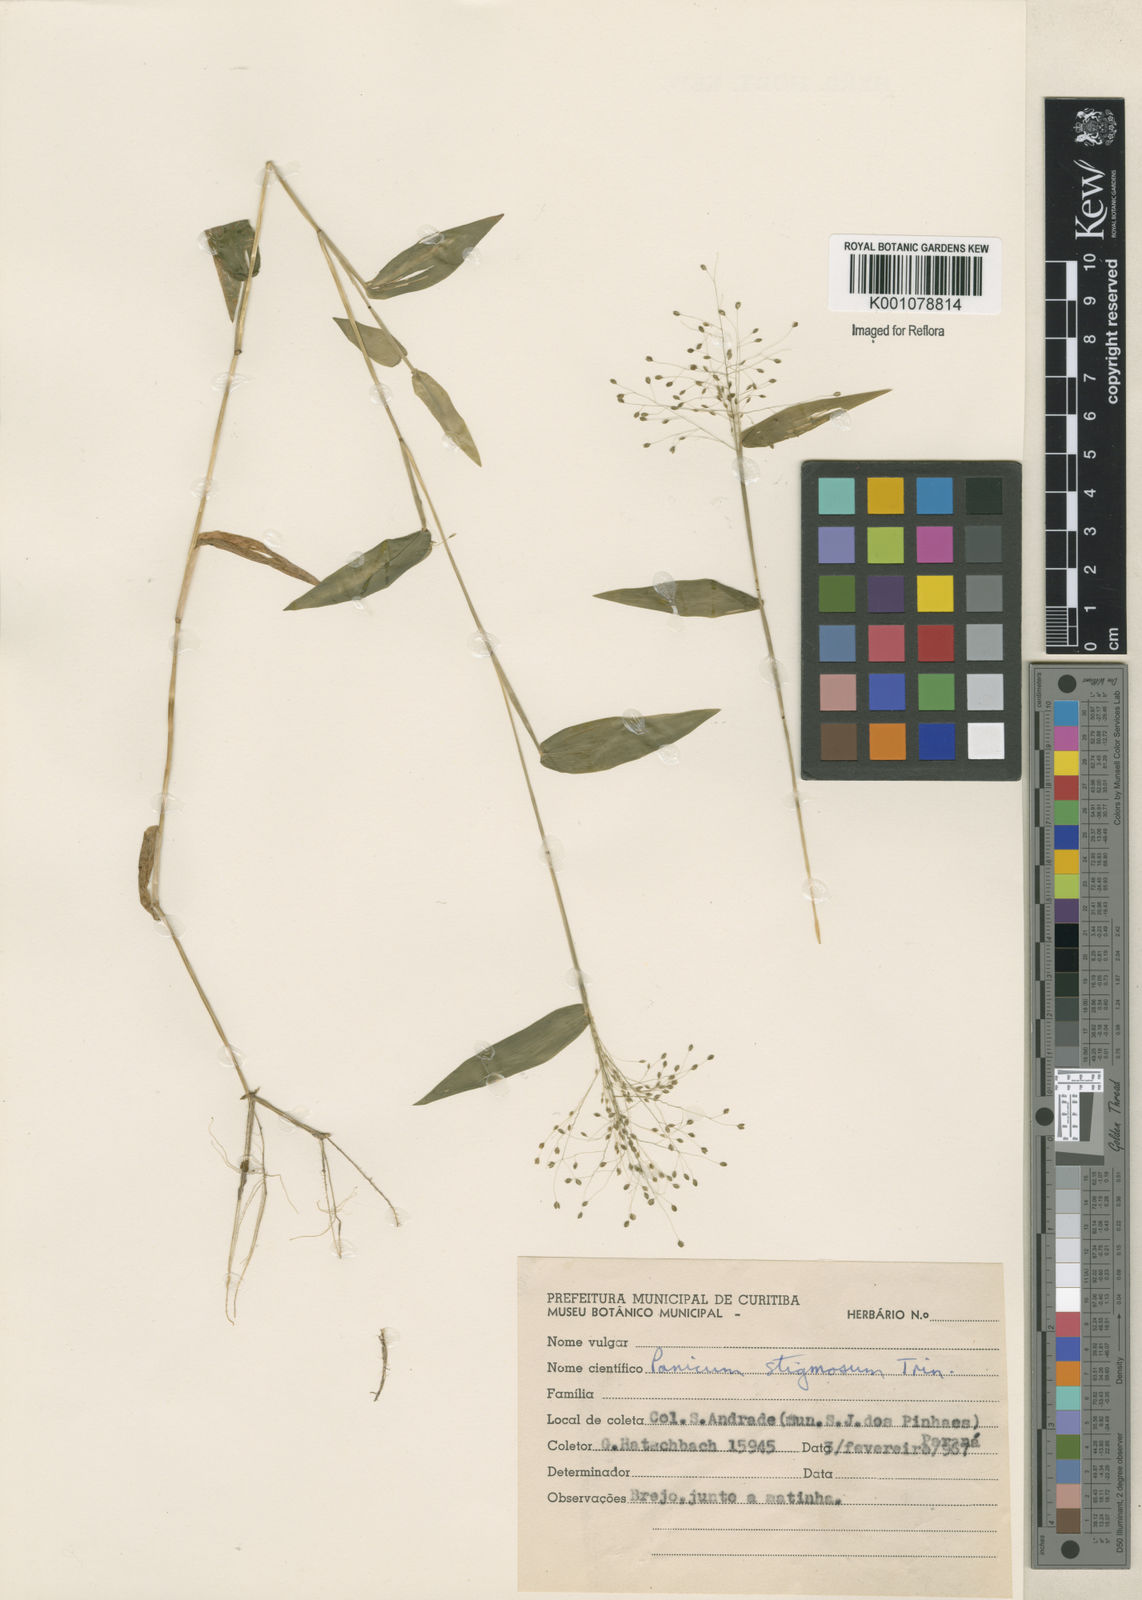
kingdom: Plantae
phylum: Tracheophyta
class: Liliopsida
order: Poales
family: Poaceae
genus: Trichanthecium
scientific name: Trichanthecium schwackeanum
